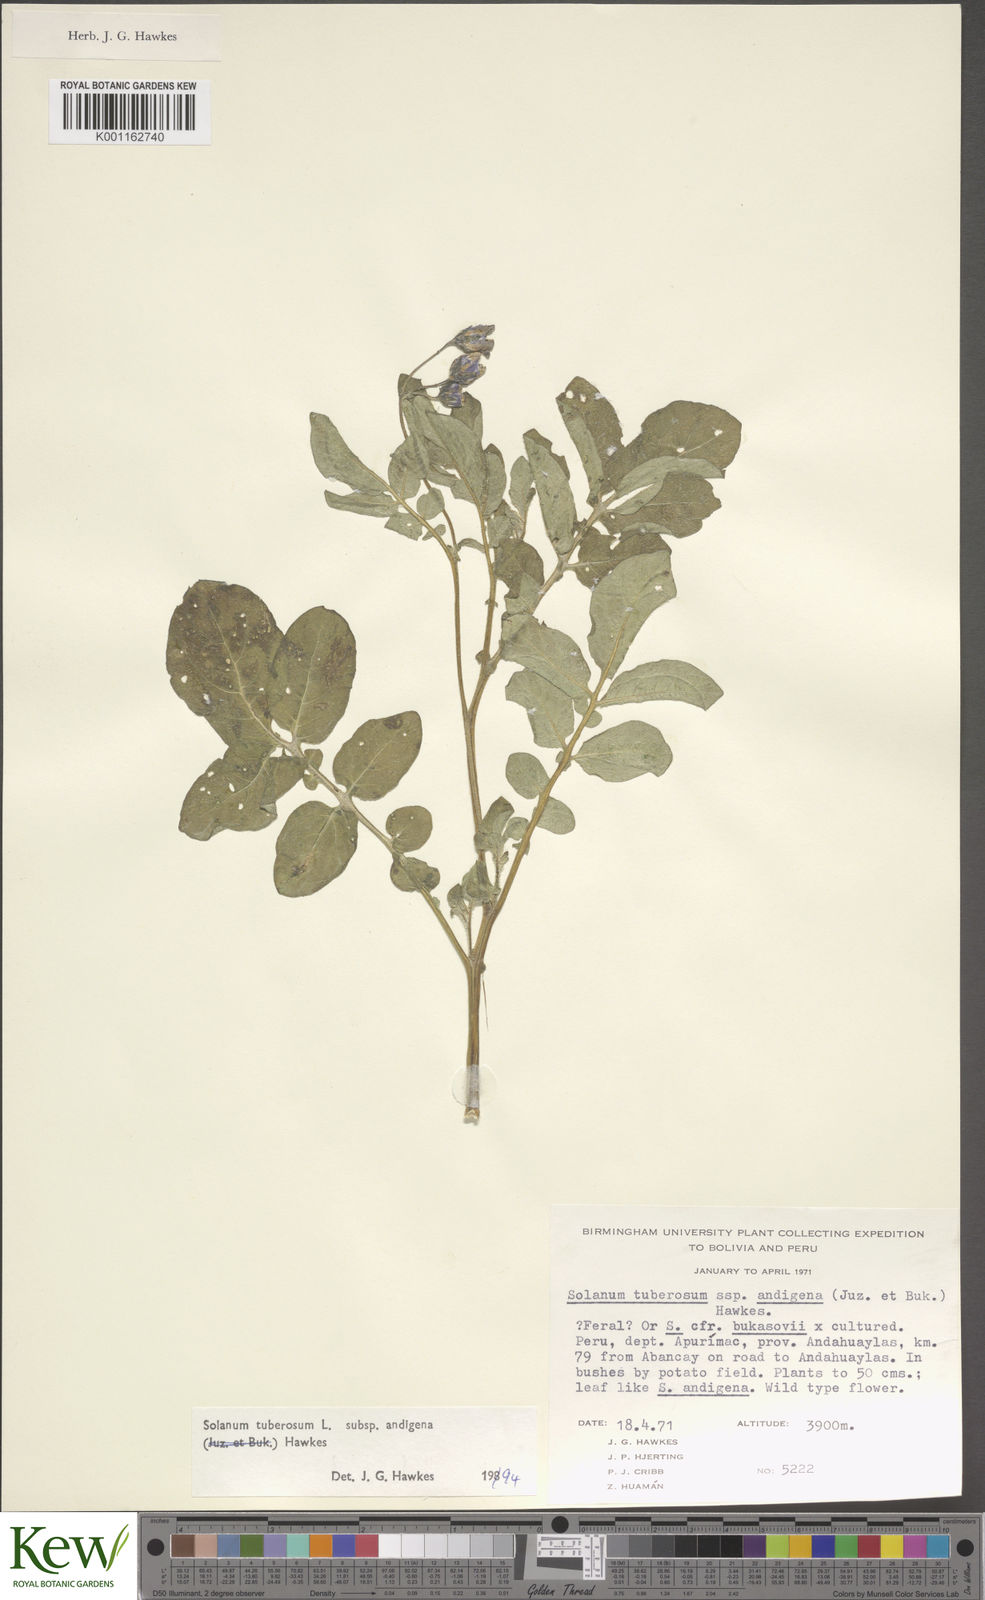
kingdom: Plantae
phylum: Tracheophyta
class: Magnoliopsida
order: Solanales
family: Solanaceae
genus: Solanum
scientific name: Solanum tuberosum
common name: Potato
